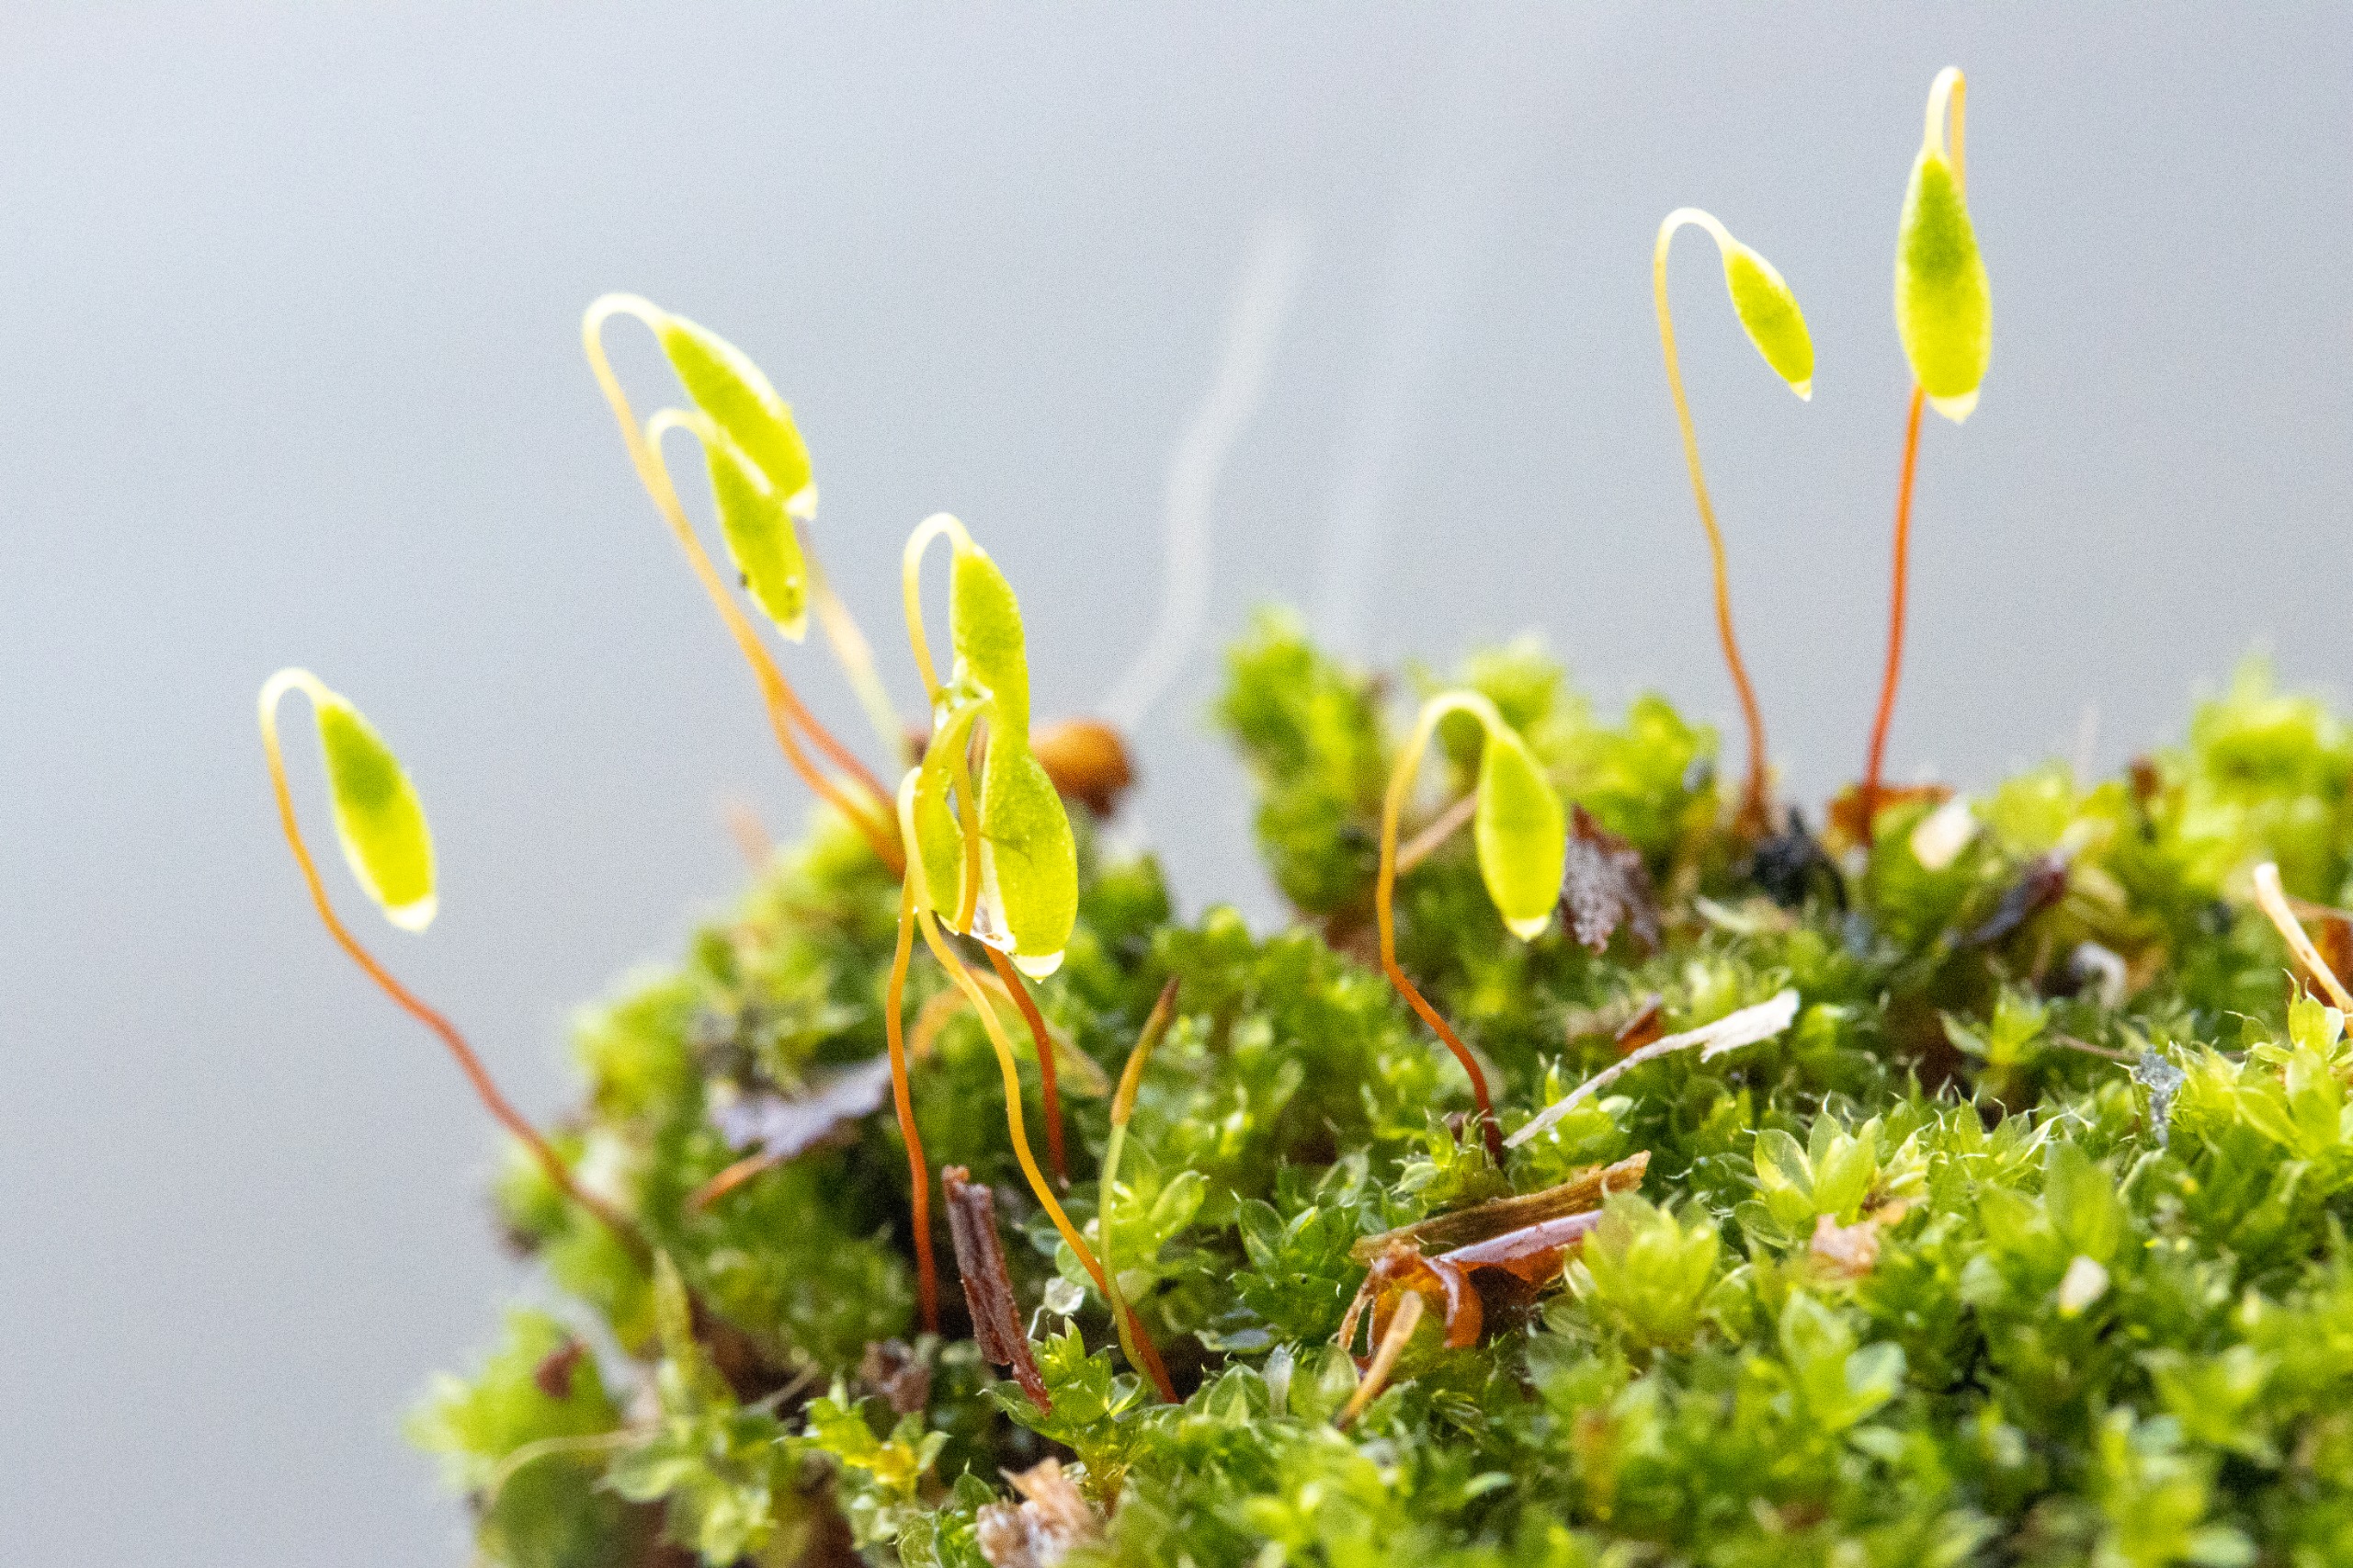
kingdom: Plantae
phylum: Bryophyta
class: Bryopsida
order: Bryales
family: Bryaceae
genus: Bryum
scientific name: Bryum
